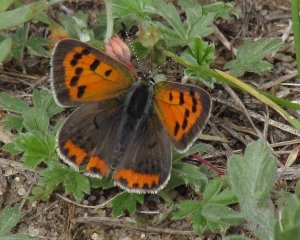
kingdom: Animalia
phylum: Arthropoda
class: Insecta
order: Lepidoptera
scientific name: Lepidoptera
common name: Butterflies
